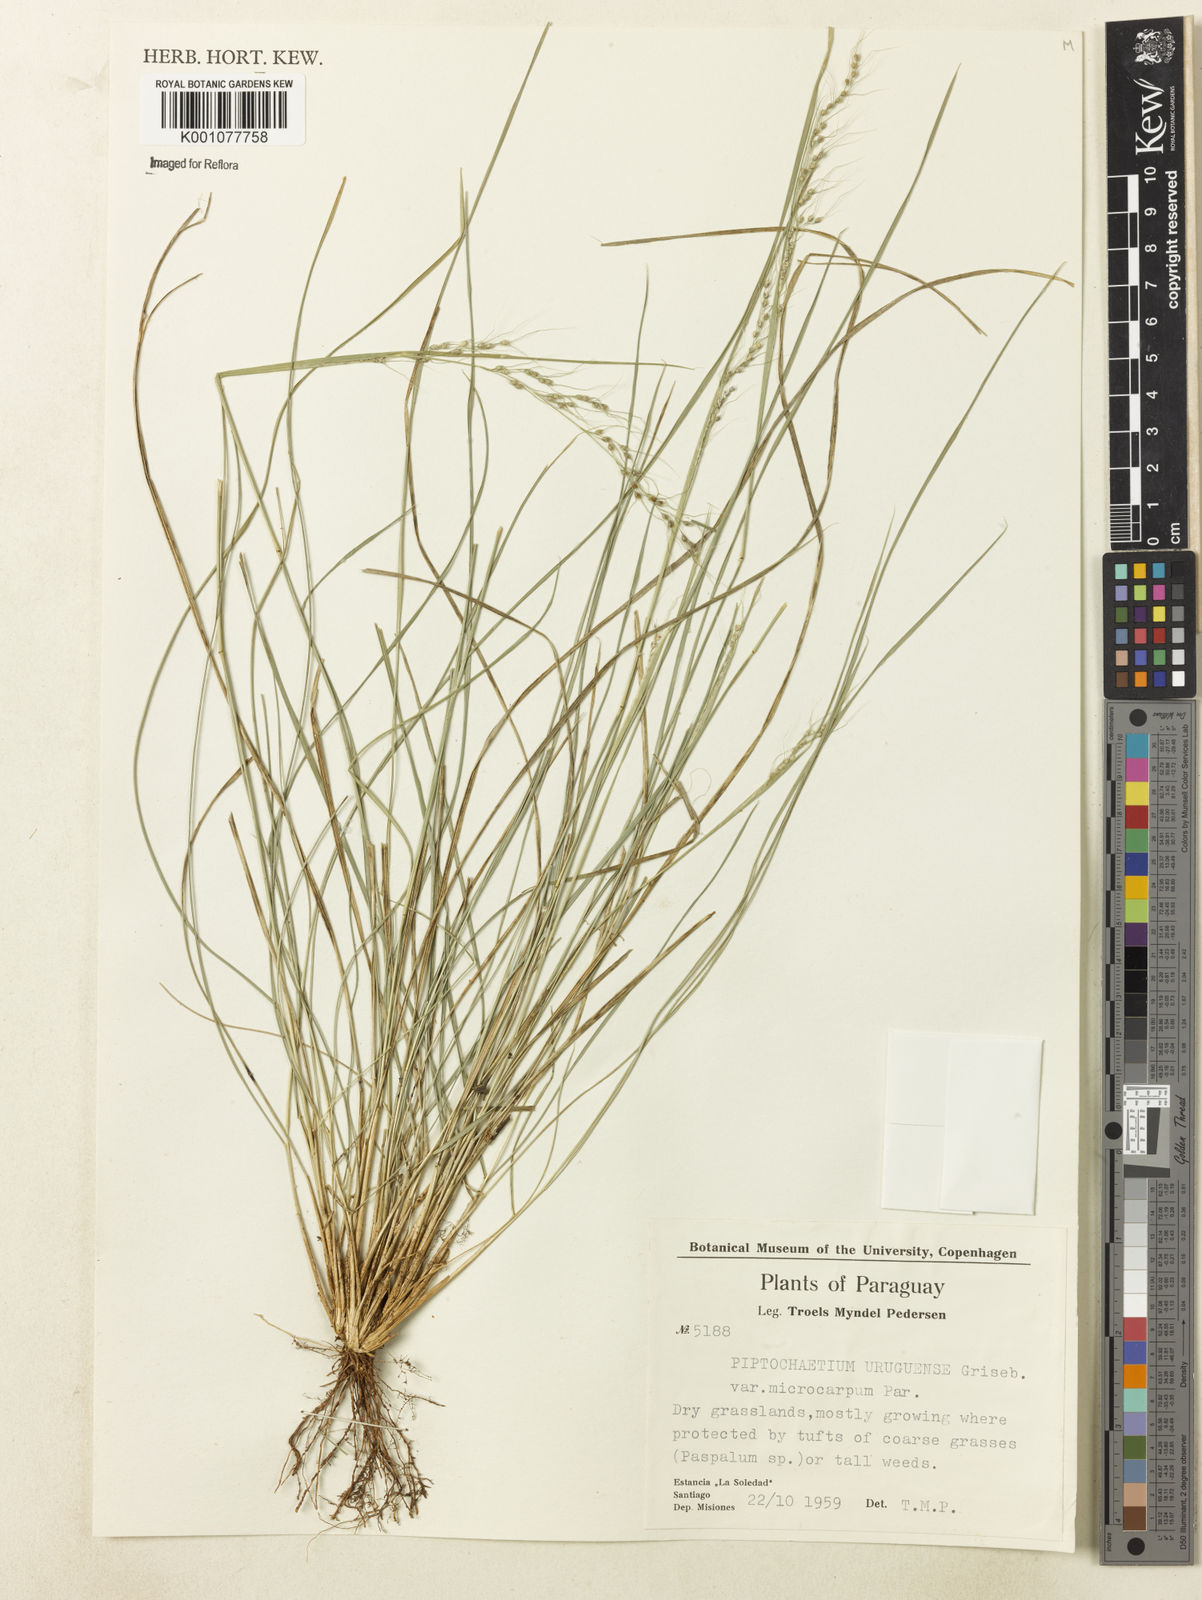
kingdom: Plantae
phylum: Tracheophyta
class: Liliopsida
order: Poales
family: Poaceae
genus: Piptochaetium
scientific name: Piptochaetium uruguense
